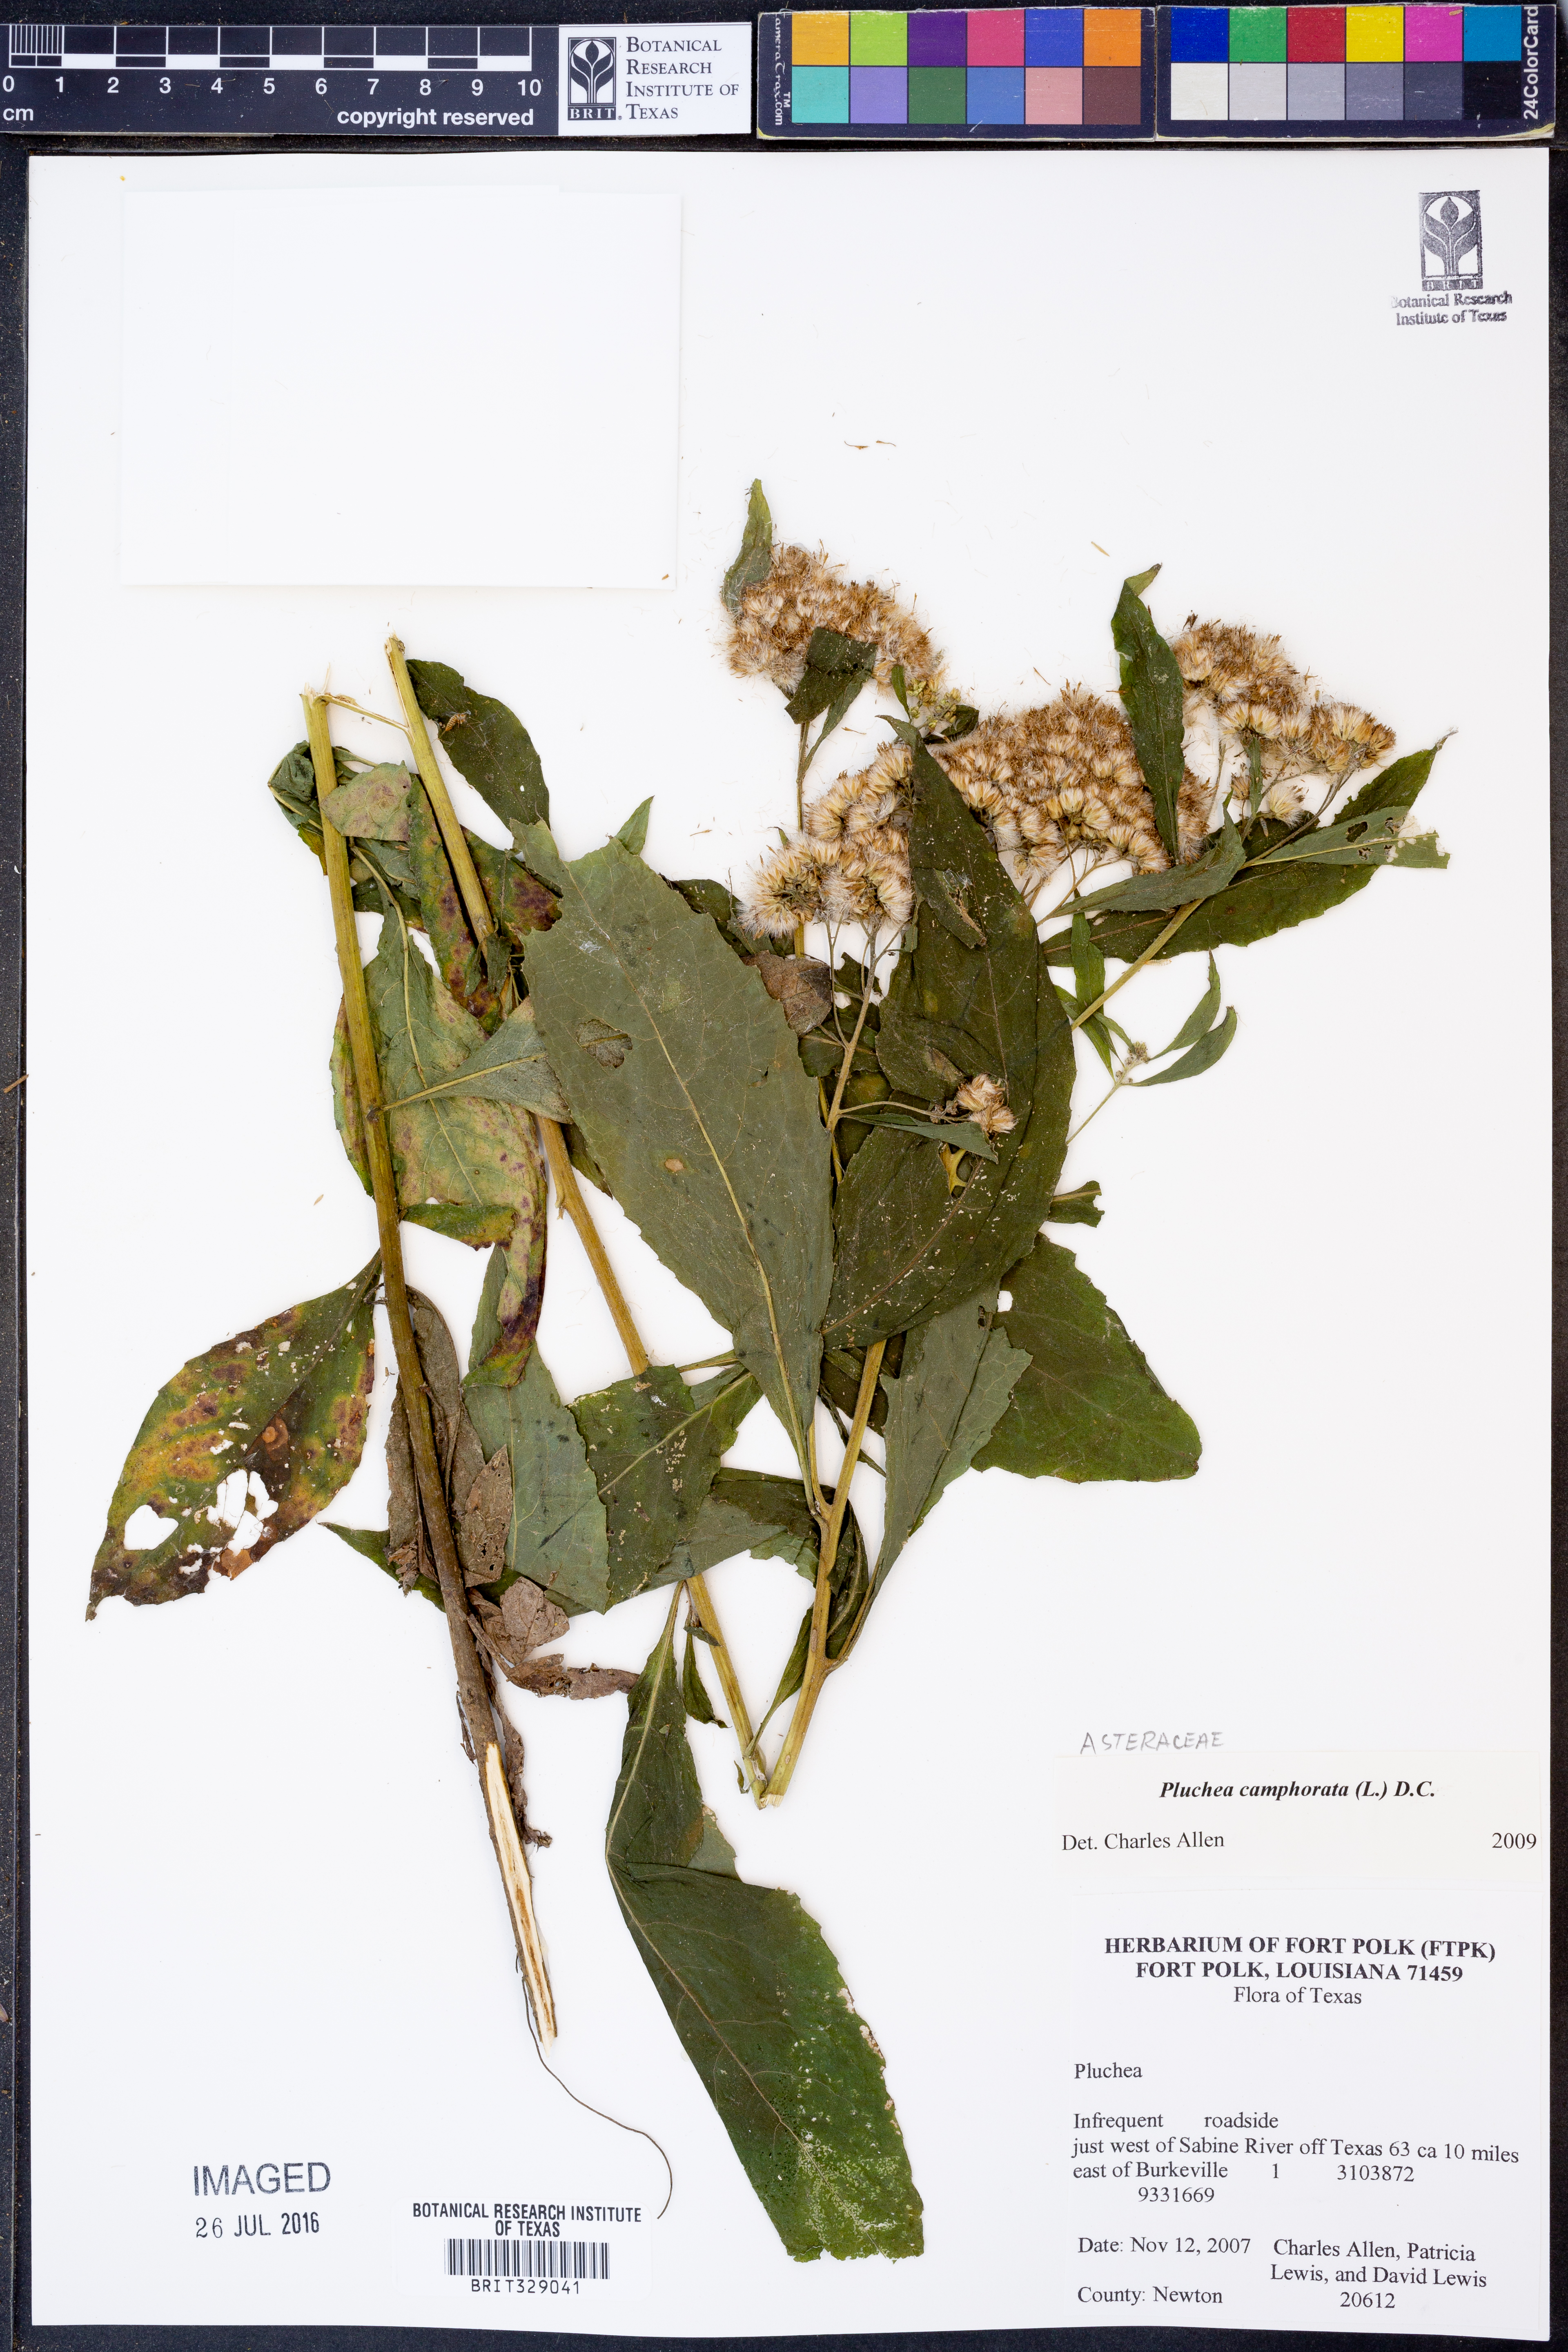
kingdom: Plantae
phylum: Tracheophyta
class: Magnoliopsida
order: Asterales
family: Asteraceae
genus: Pluchea
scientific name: Pluchea camphorata
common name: Camphor pluchea
